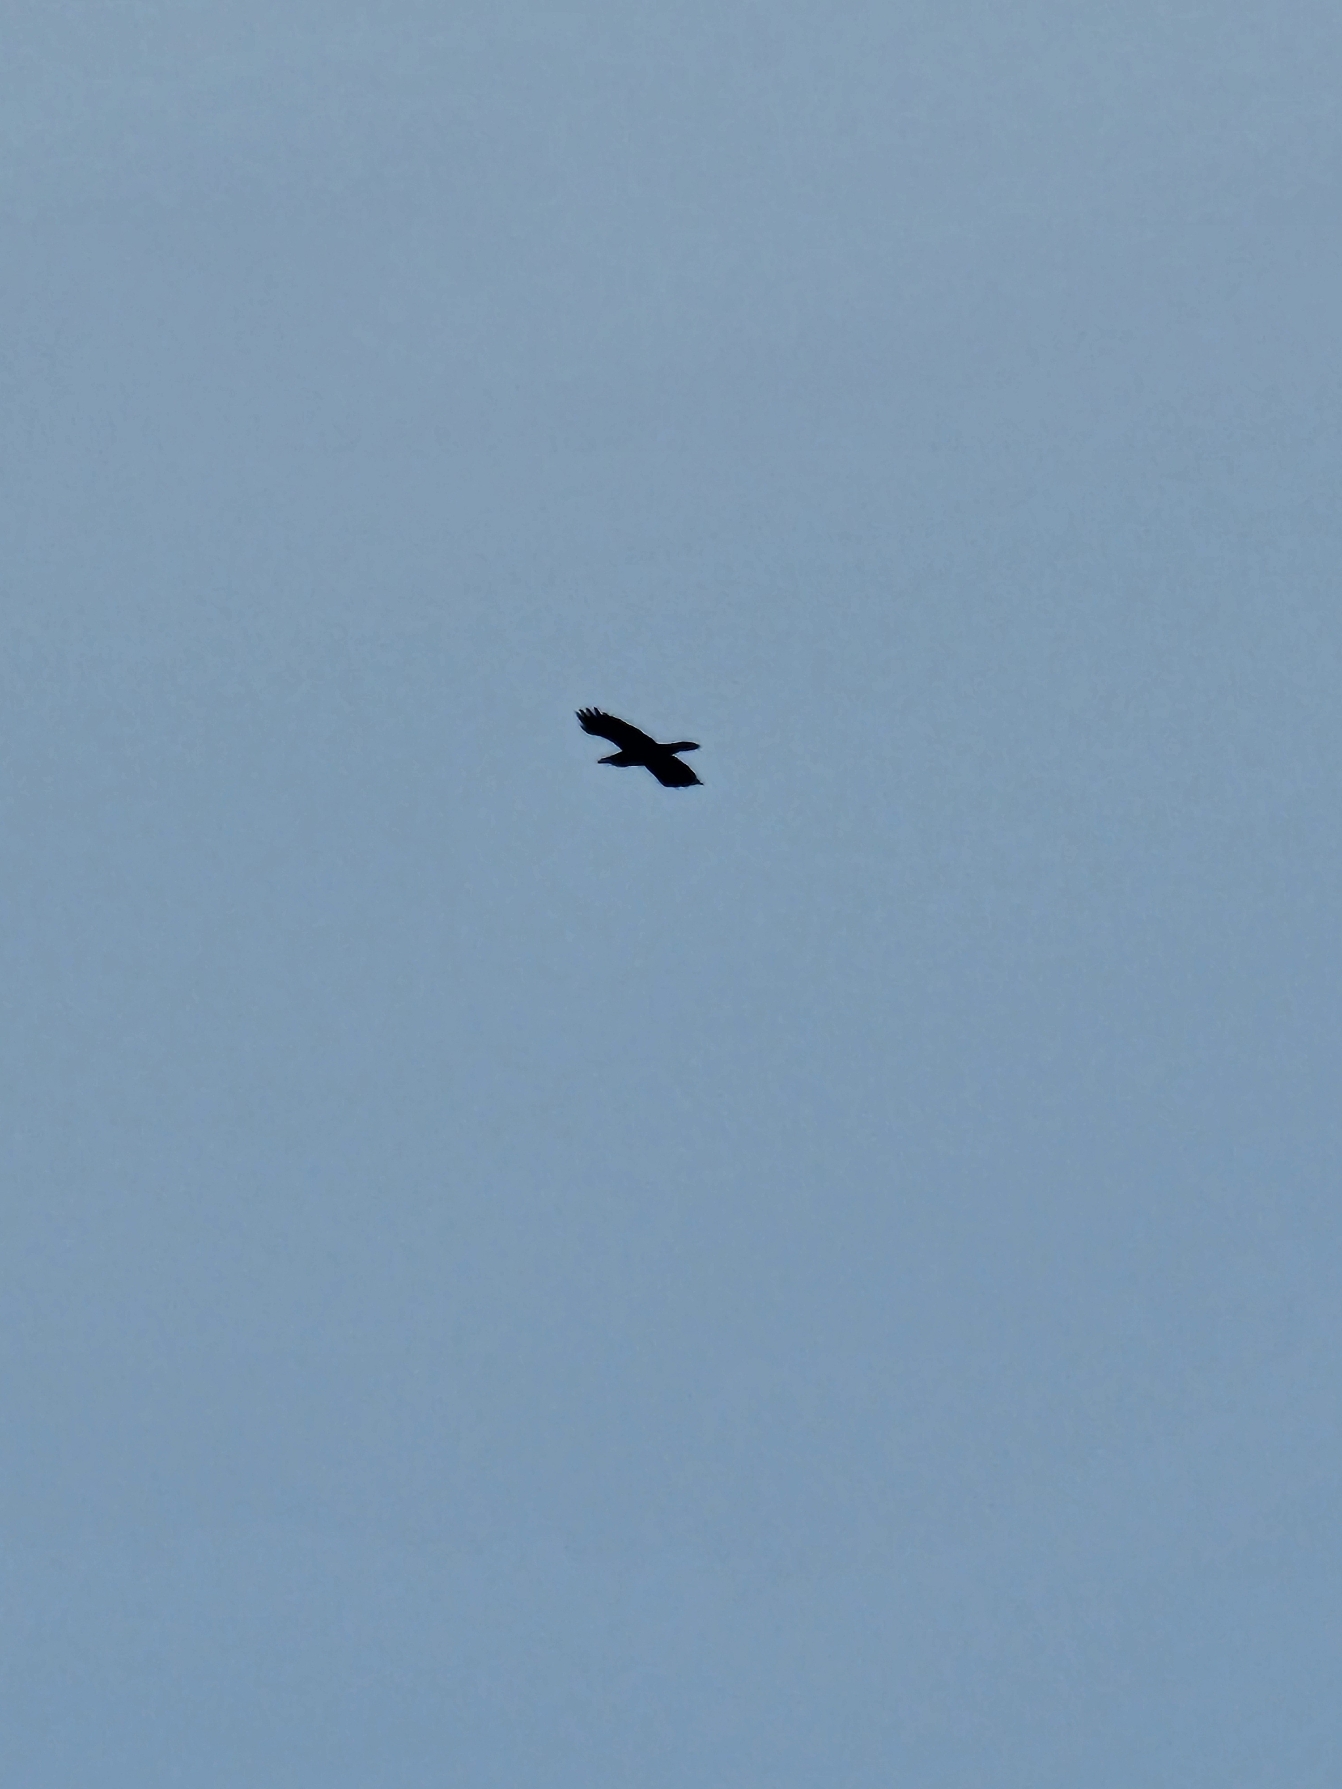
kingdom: Animalia
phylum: Chordata
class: Aves
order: Passeriformes
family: Corvidae
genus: Corvus
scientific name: Corvus corax
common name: Ravn
